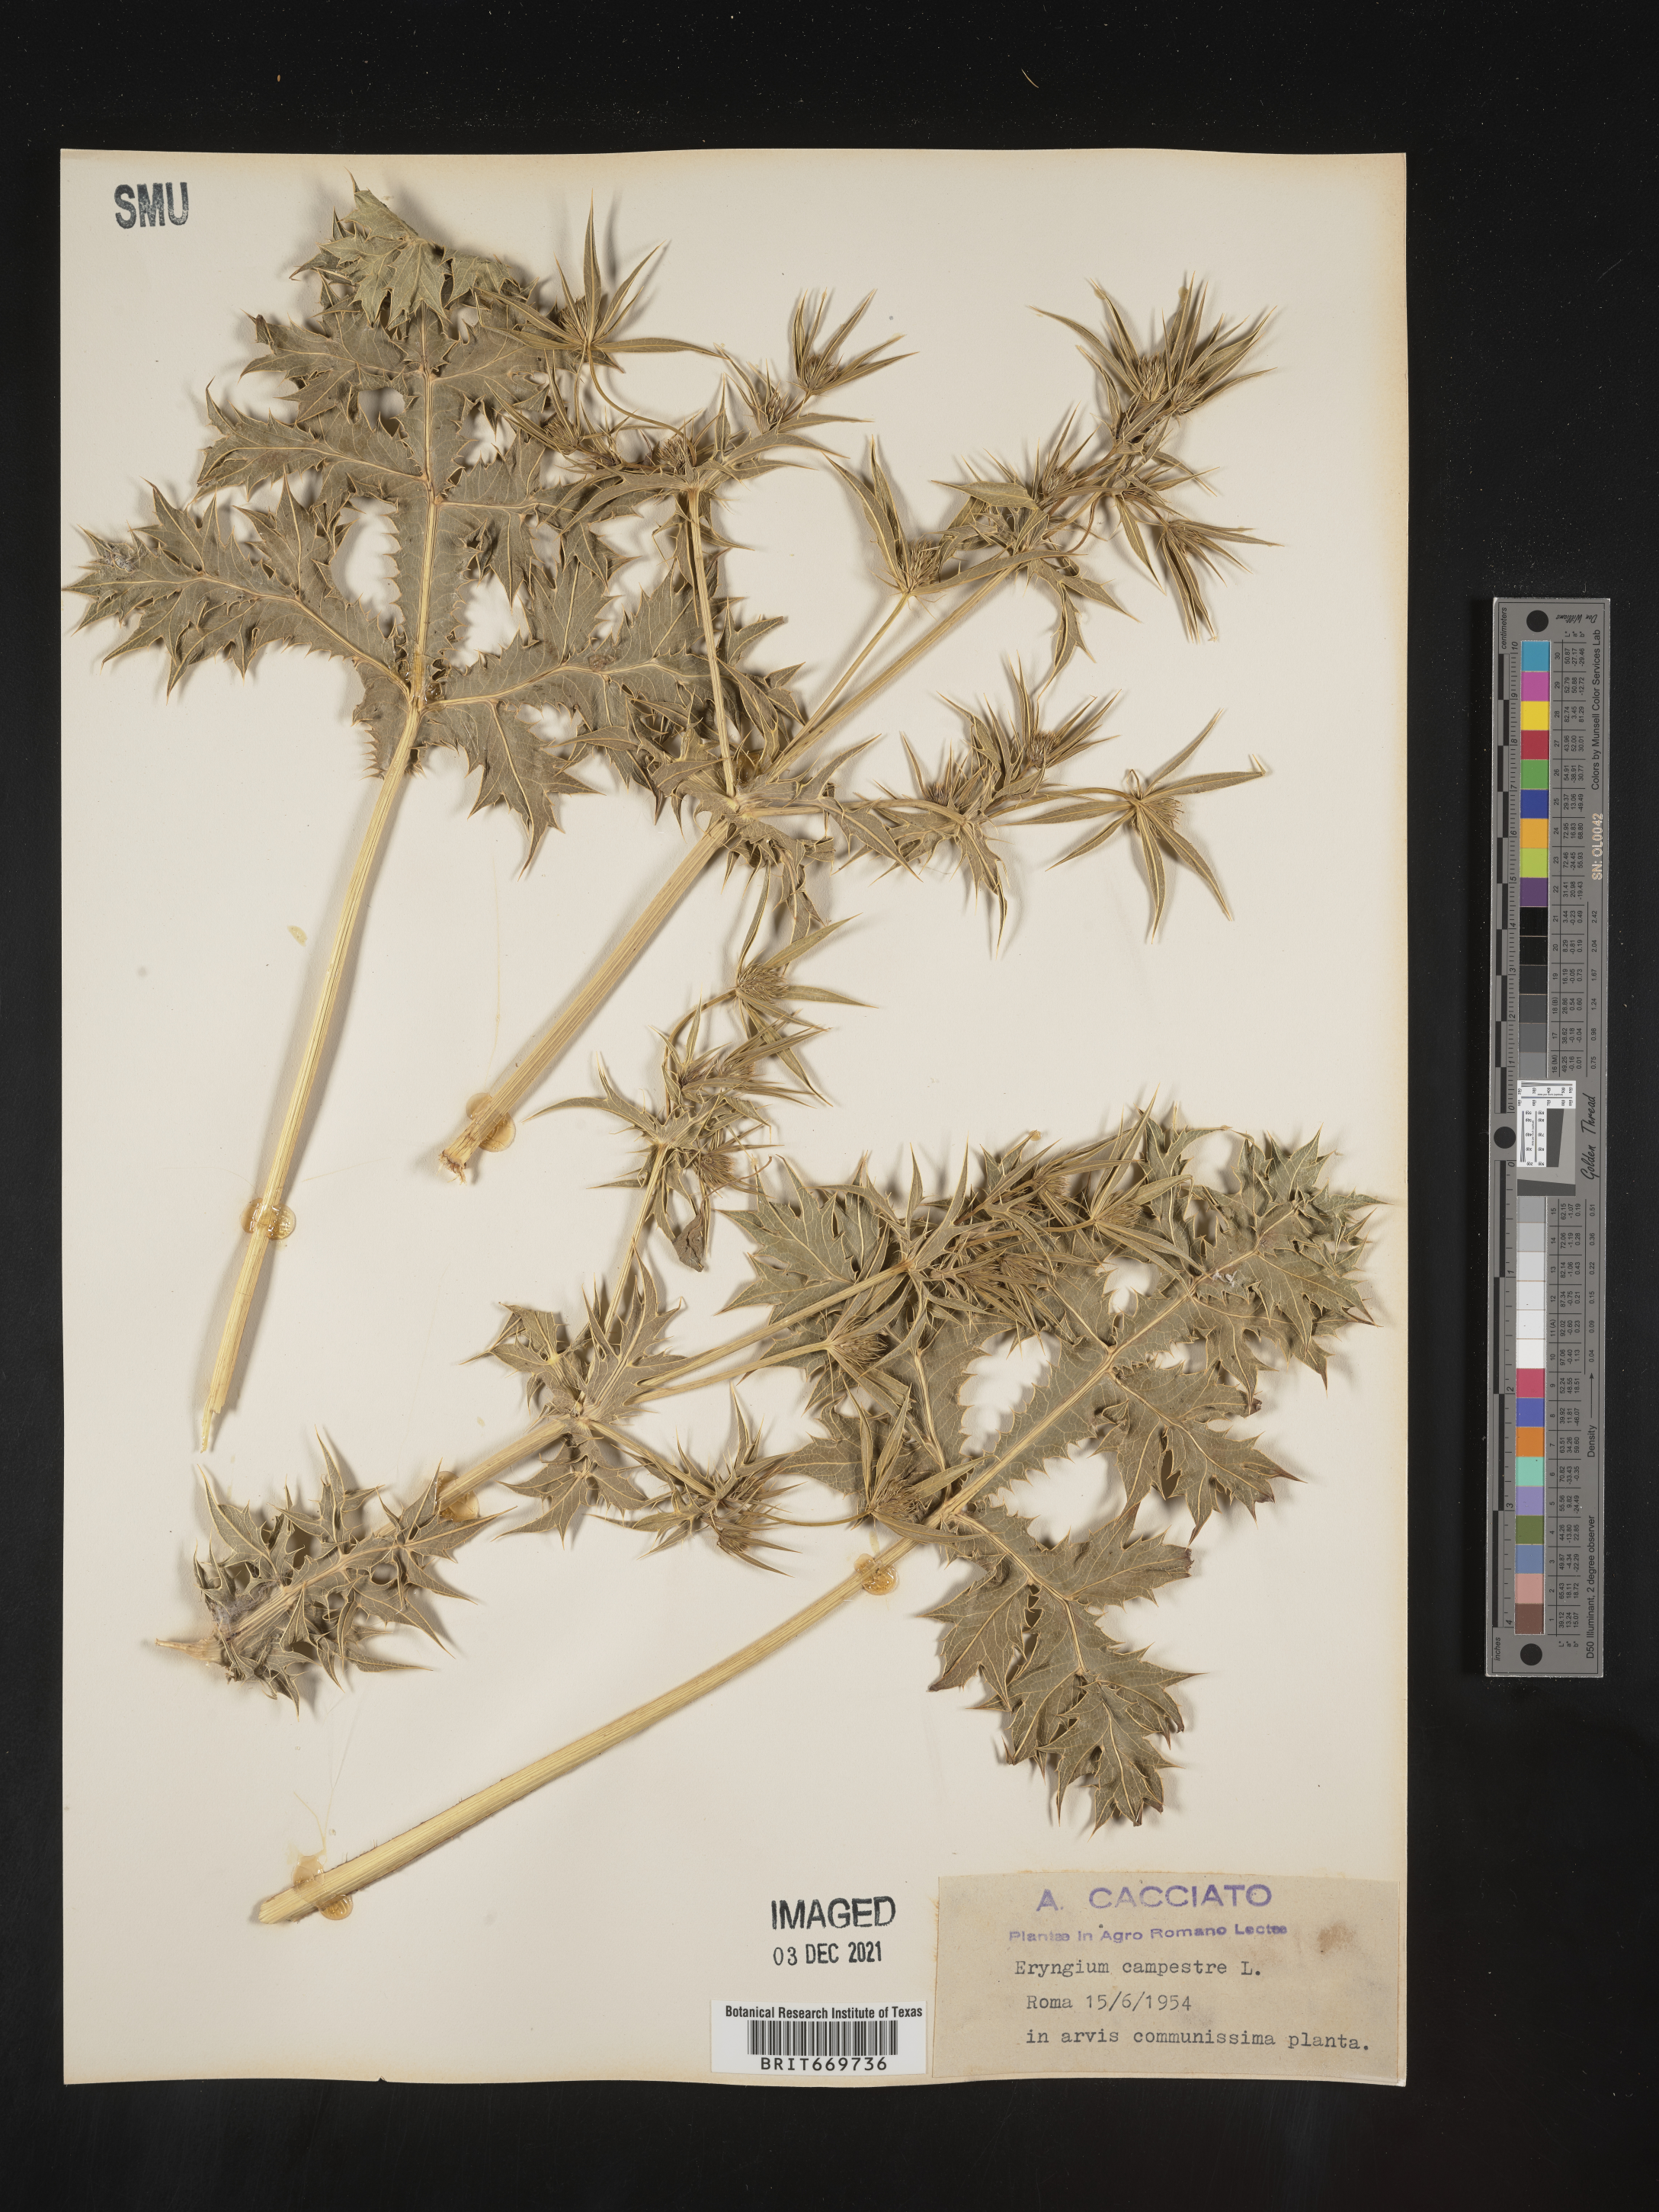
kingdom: Plantae
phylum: Tracheophyta
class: Magnoliopsida
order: Apiales
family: Apiaceae
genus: Eryngium
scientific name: Eryngium
